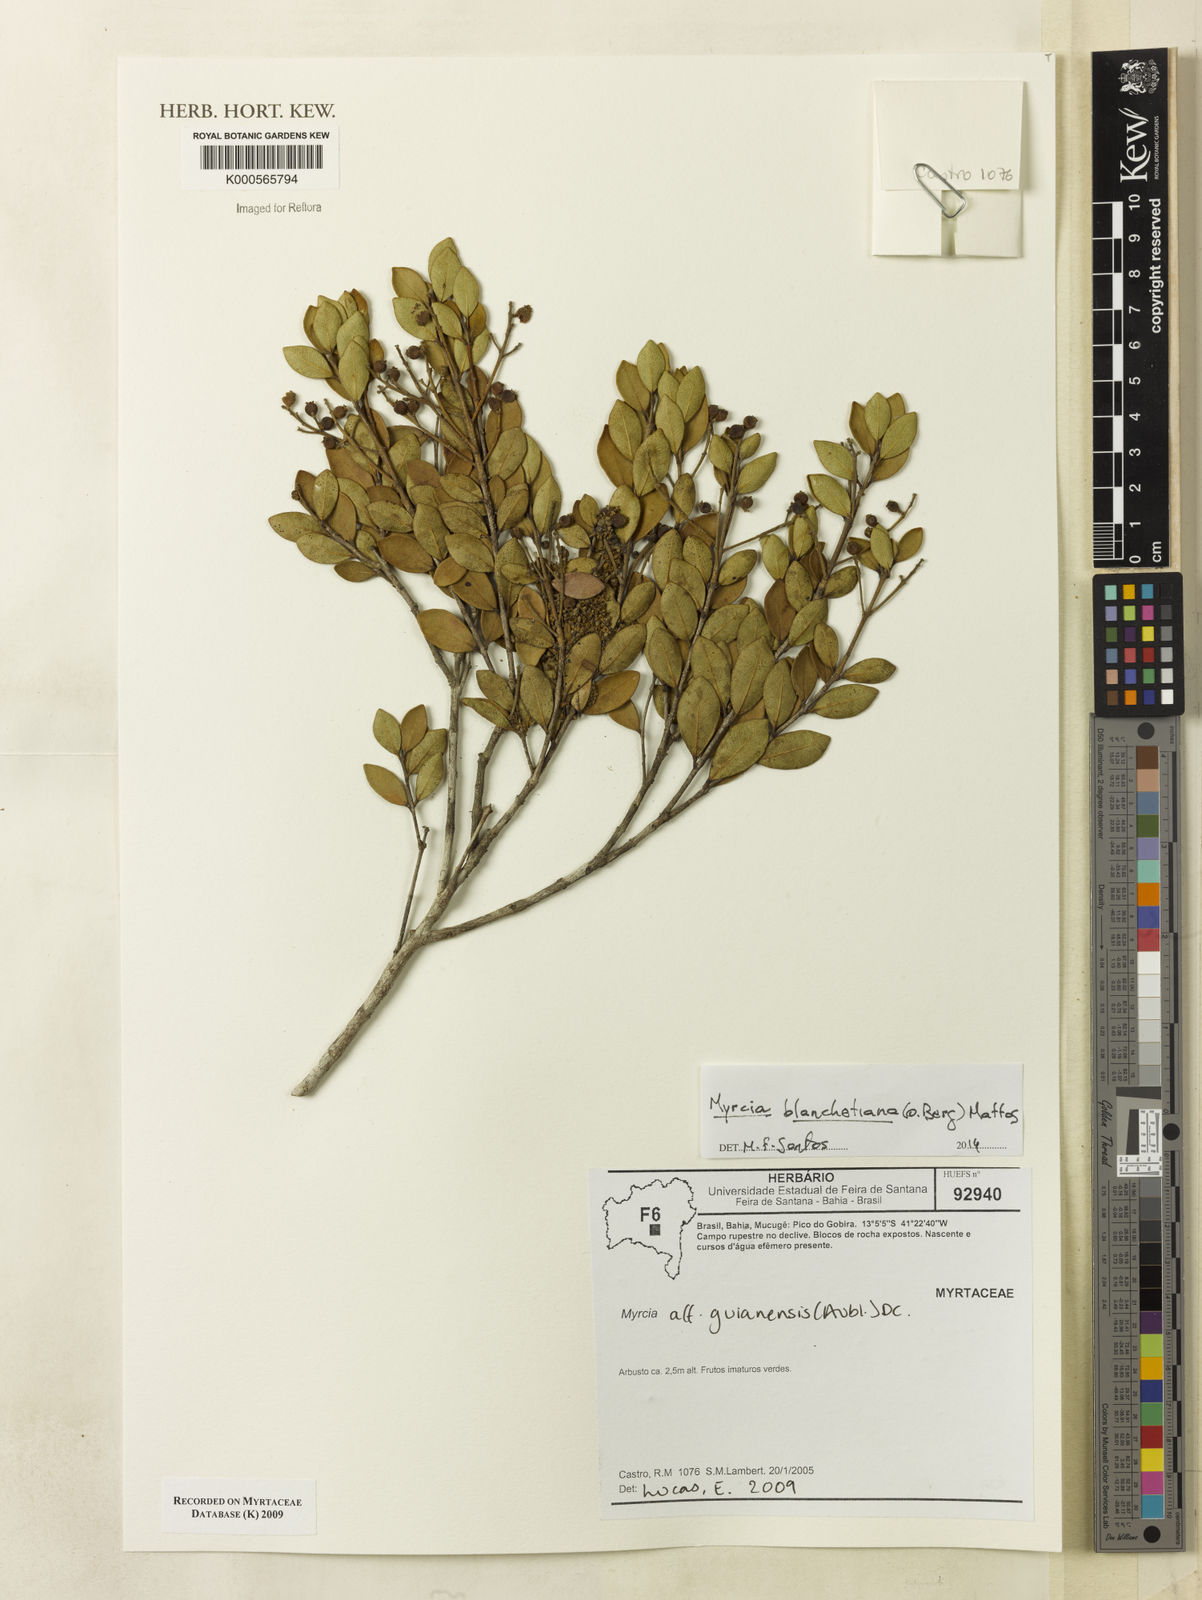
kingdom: Plantae
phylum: Tracheophyta
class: Magnoliopsida
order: Myrtales
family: Myrtaceae
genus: Myrcia
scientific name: Myrcia guianensis
